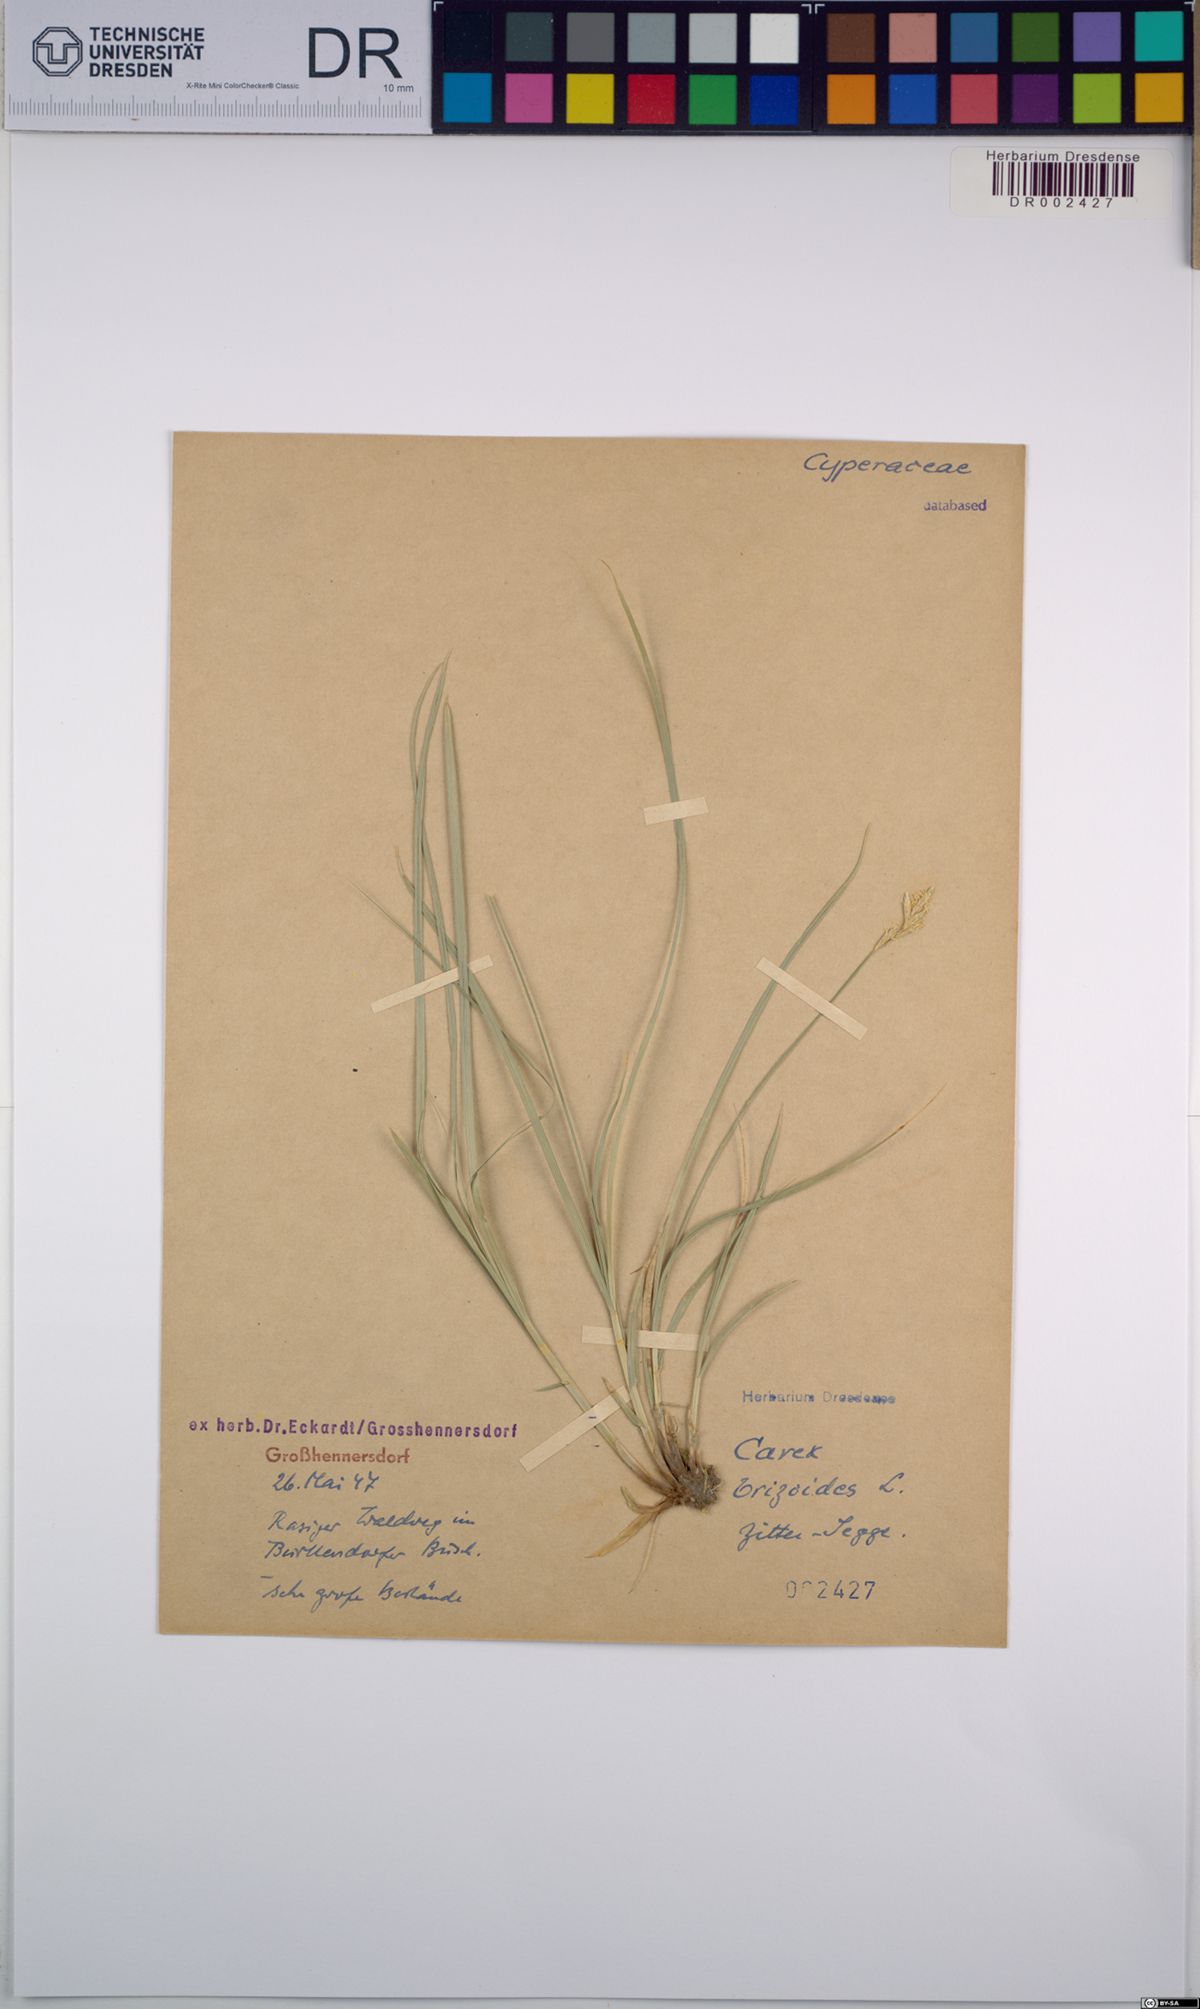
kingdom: Plantae
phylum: Tracheophyta
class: Liliopsida
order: Poales
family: Cyperaceae
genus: Carex
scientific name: Carex brizoides
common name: Quaking-grass sedge
